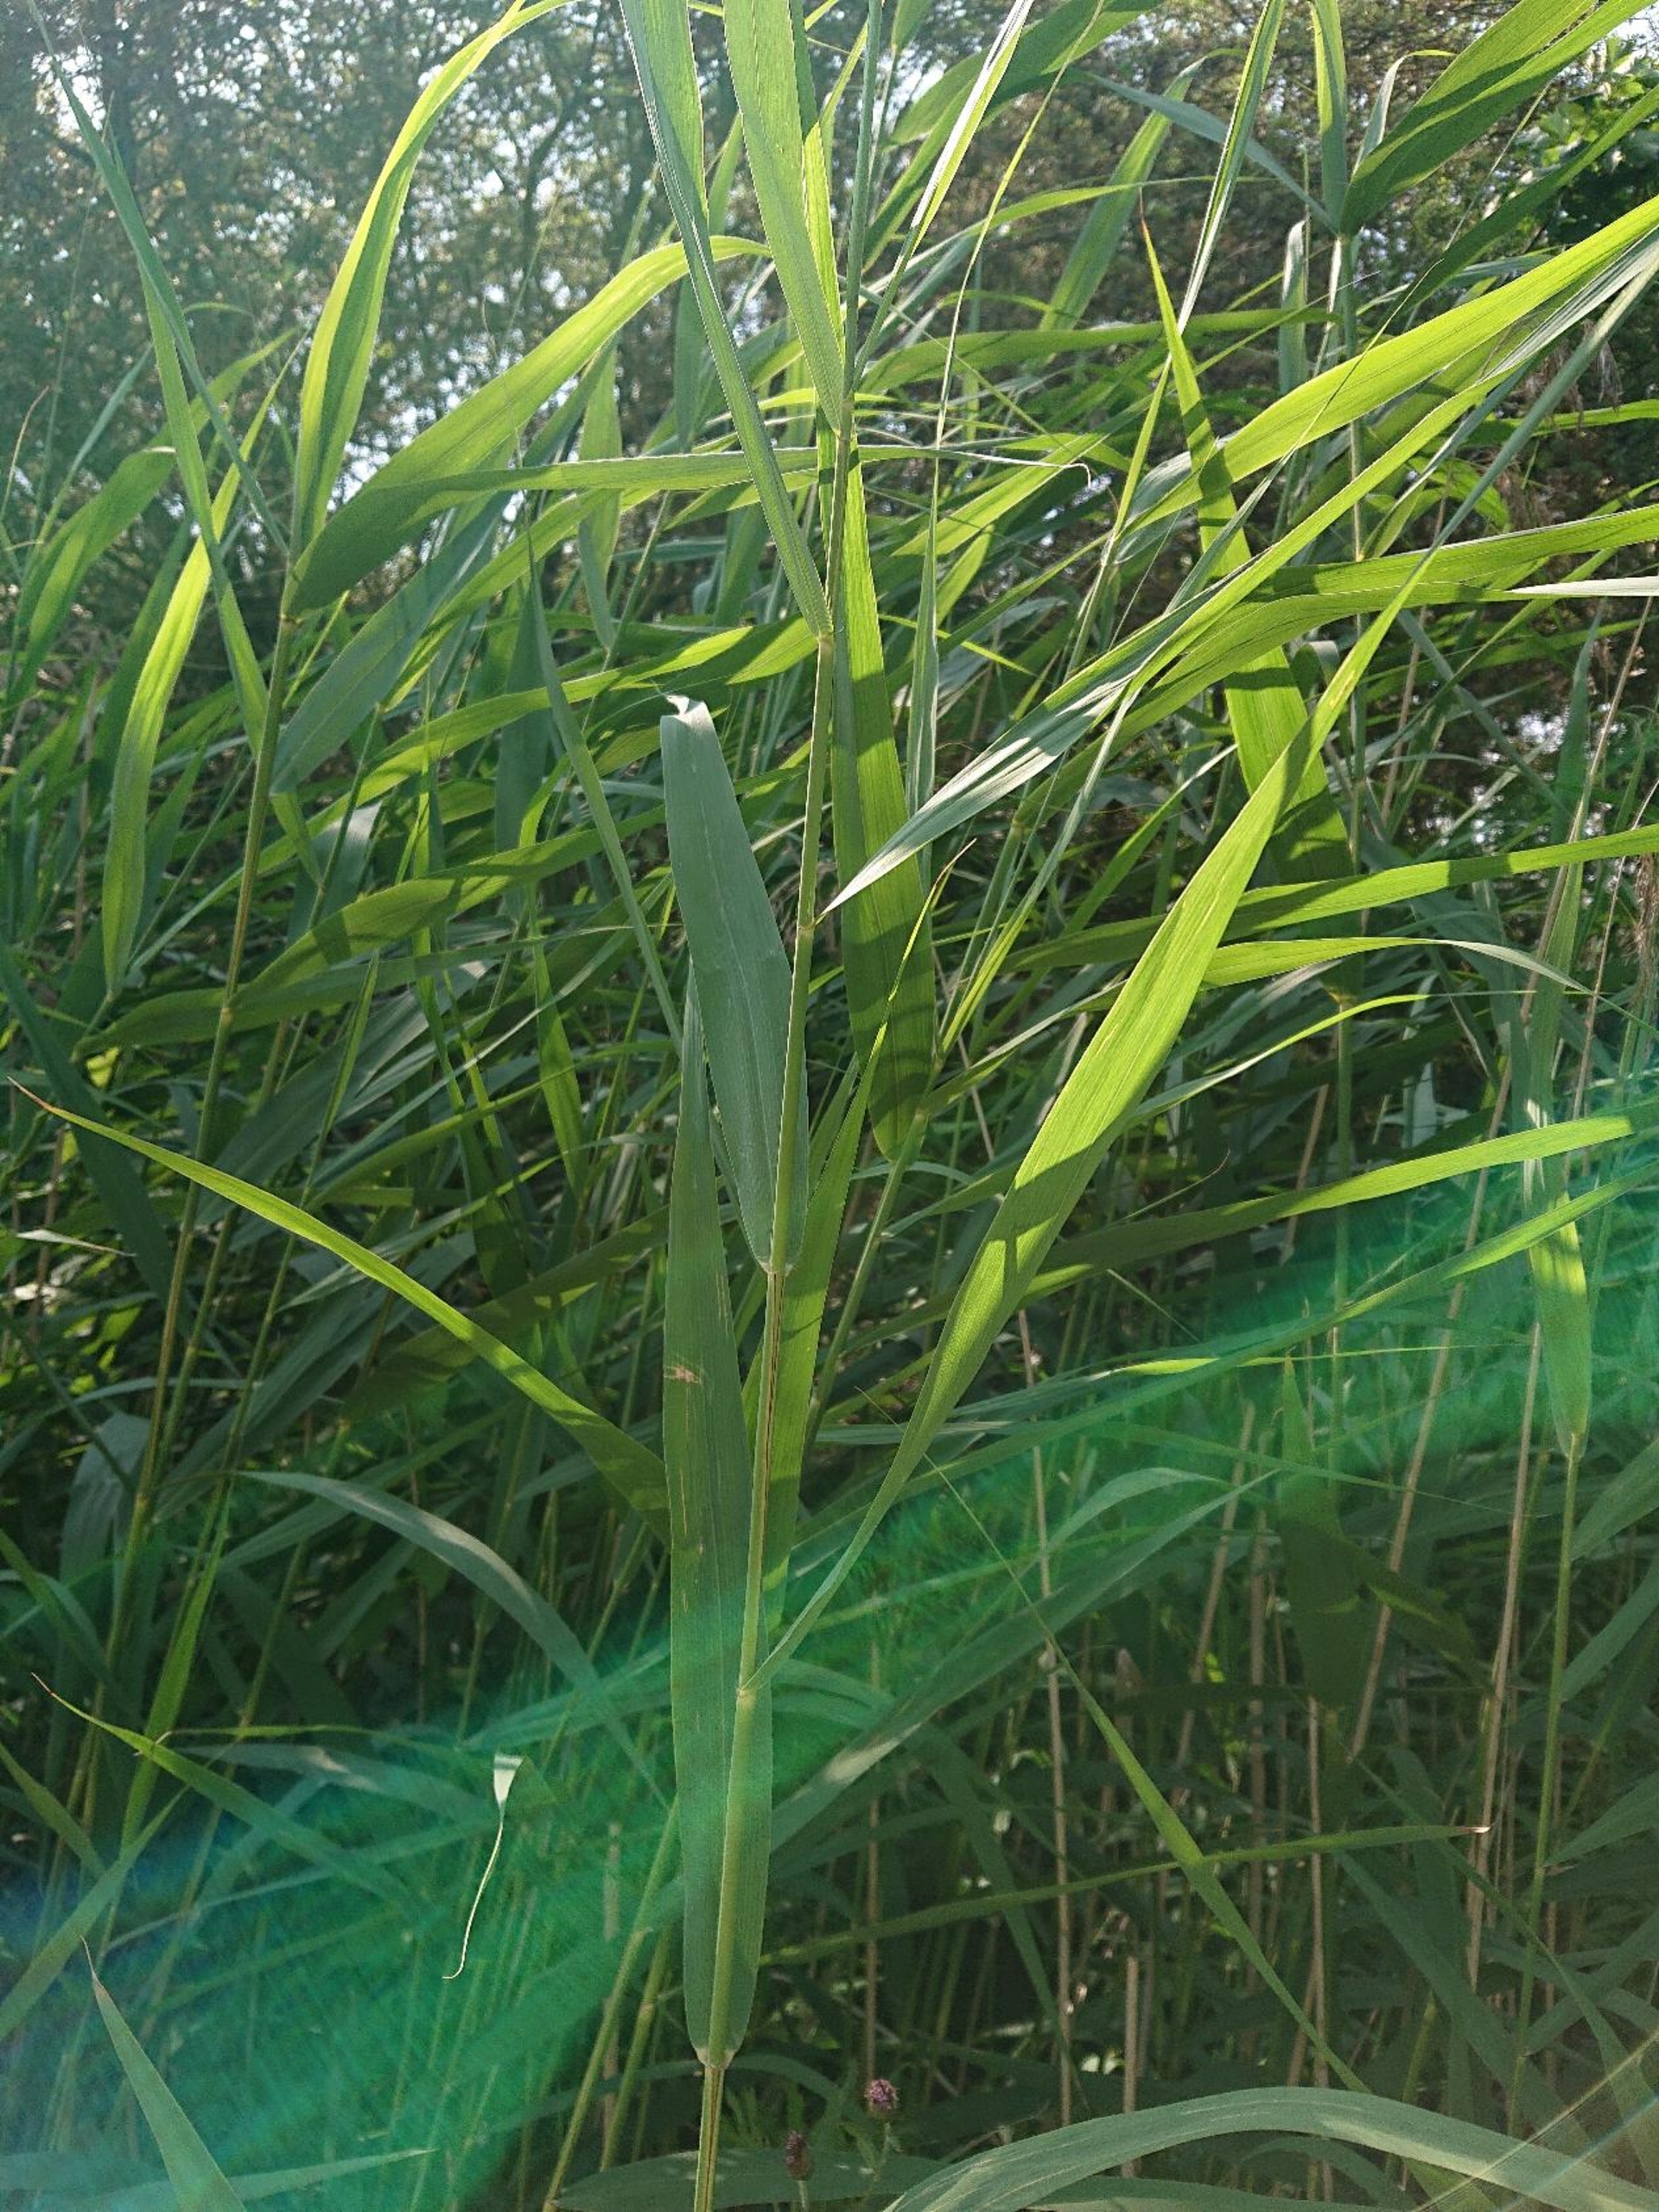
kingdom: Plantae
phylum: Tracheophyta
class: Liliopsida
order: Poales
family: Poaceae
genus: Phragmites
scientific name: Phragmites australis
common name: Tagrør
